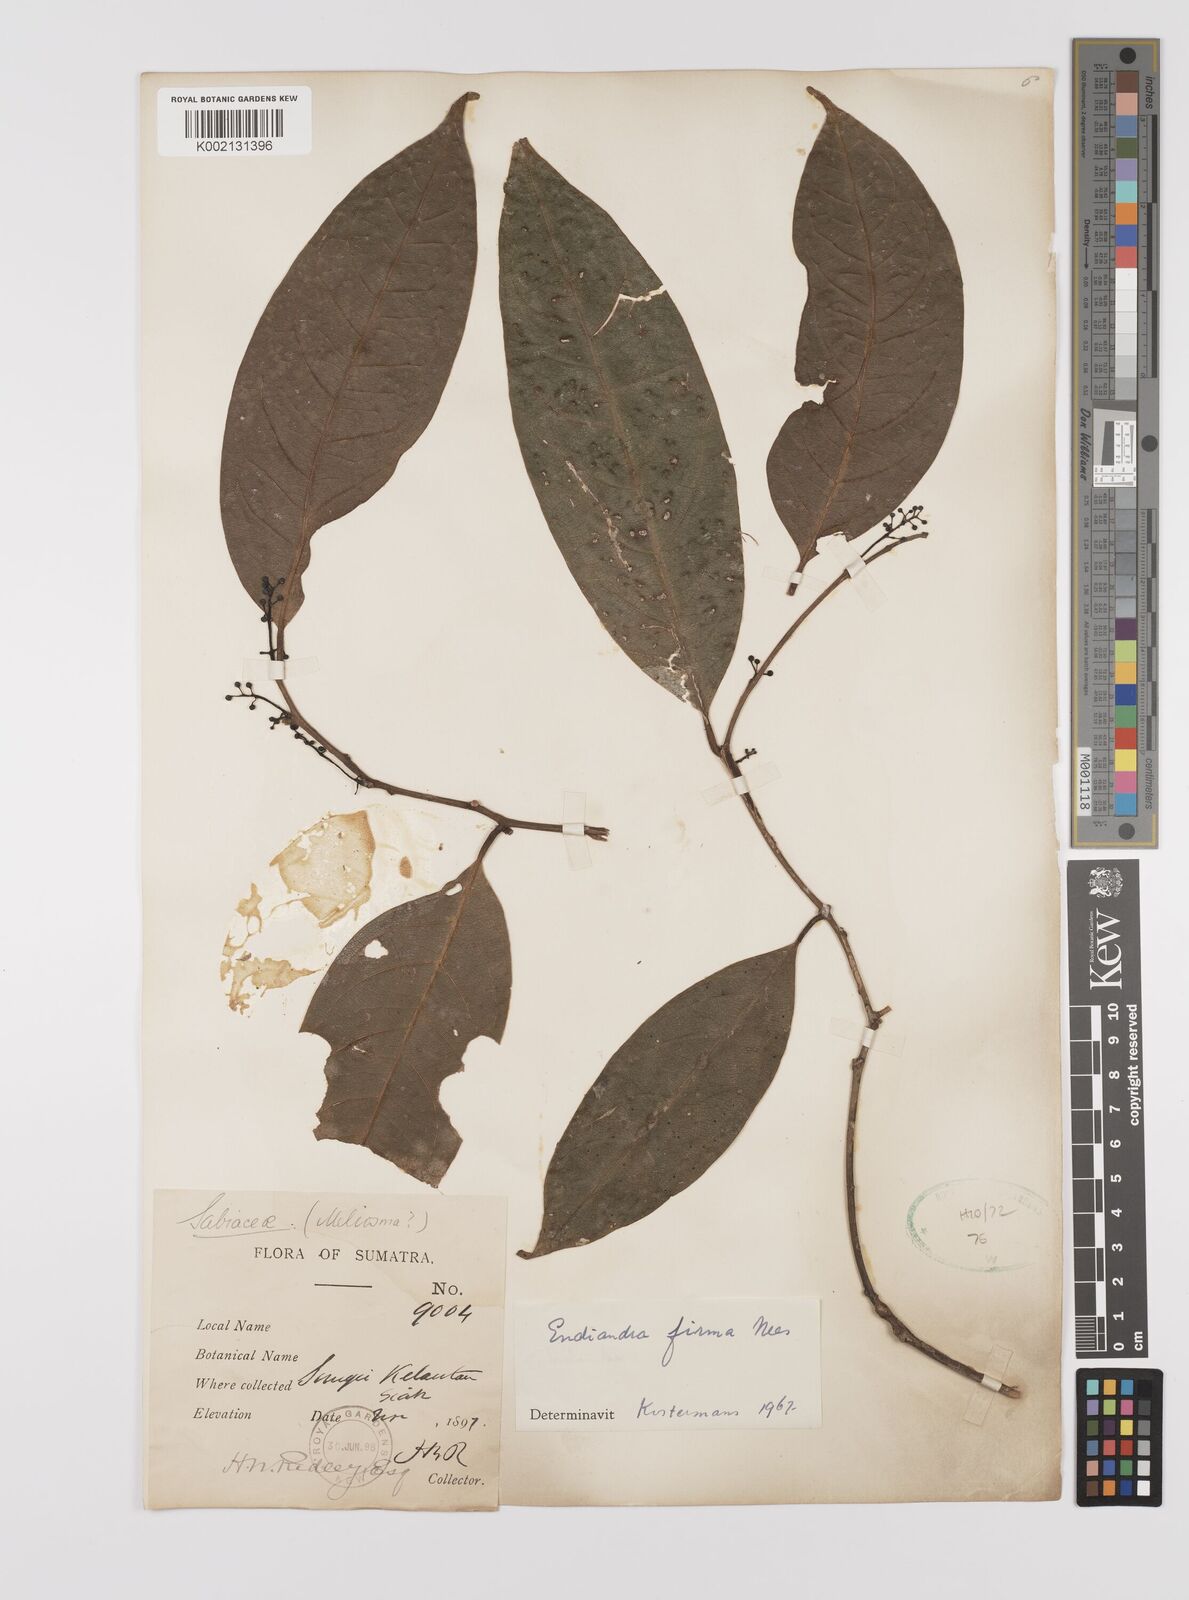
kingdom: Plantae
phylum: Tracheophyta
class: Magnoliopsida
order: Laurales
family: Lauraceae
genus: Endiandra
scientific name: Endiandra firma
